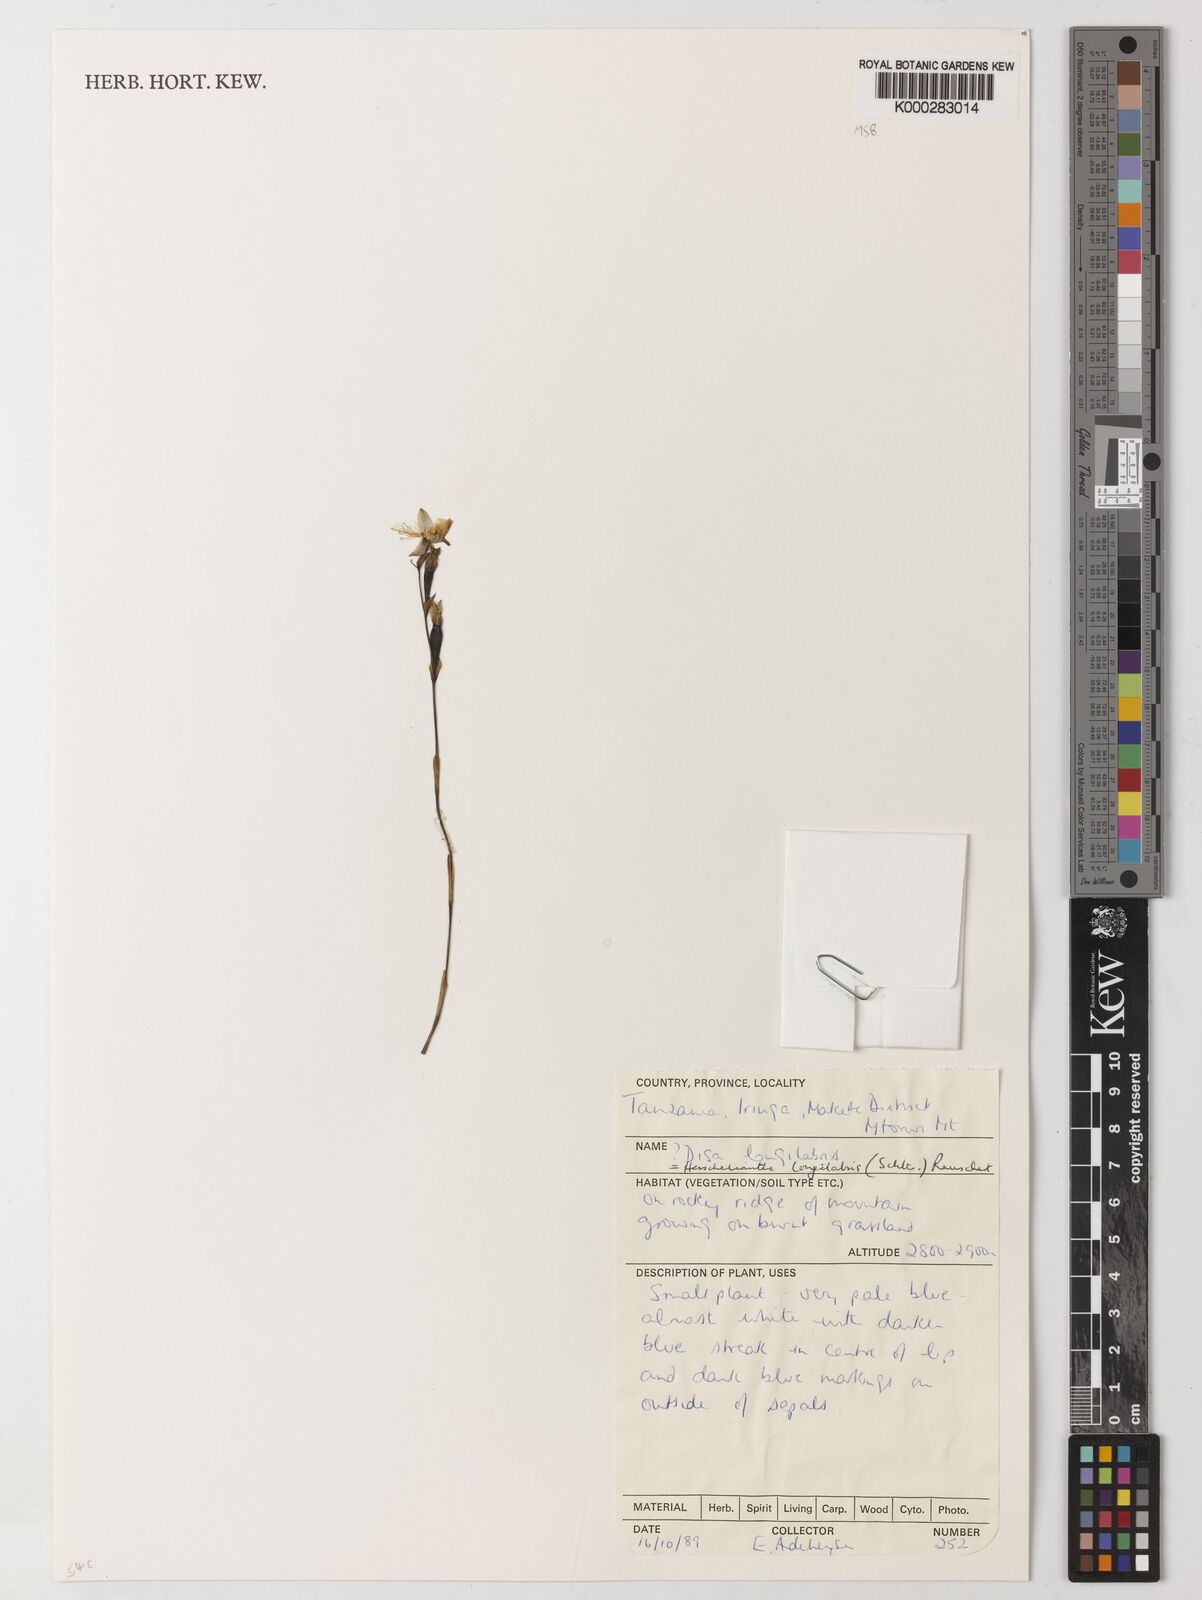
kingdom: Plantae
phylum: Tracheophyta
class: Liliopsida
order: Asparagales
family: Orchidaceae
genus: Disa
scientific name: Disa longilabris
